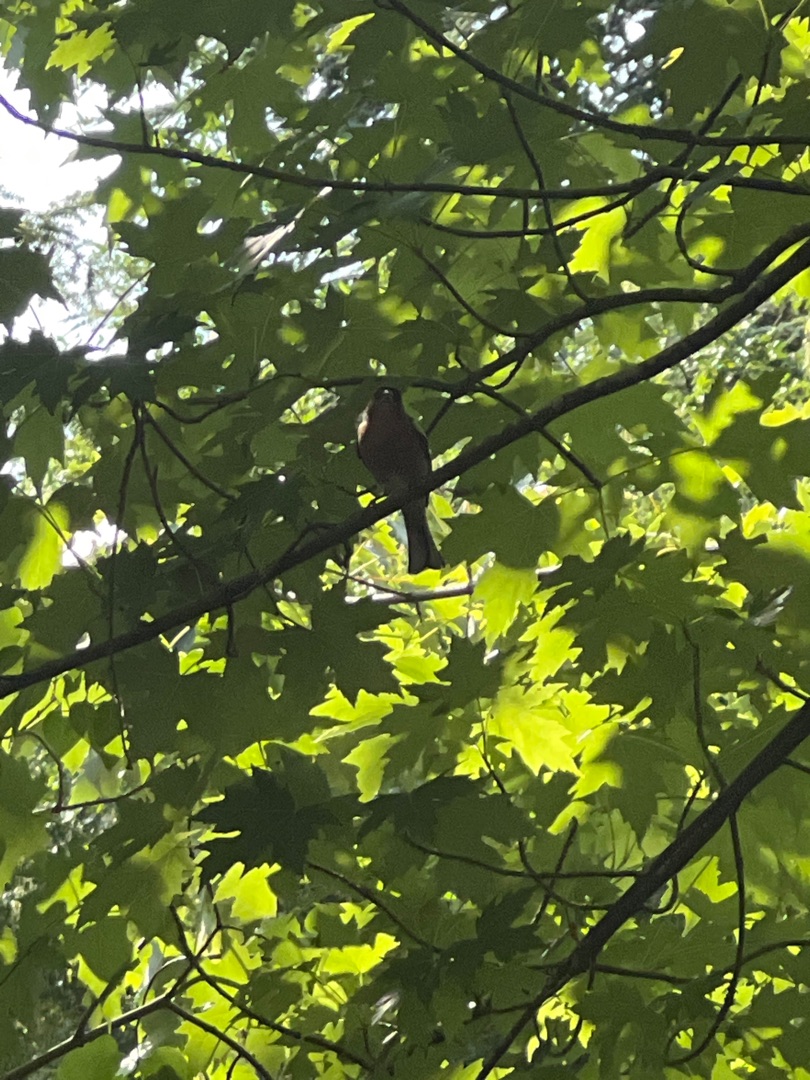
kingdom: Animalia
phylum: Chordata
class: Aves
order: Passeriformes
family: Fringillidae
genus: Fringilla
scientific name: Fringilla coelebs
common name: Bogfinke
